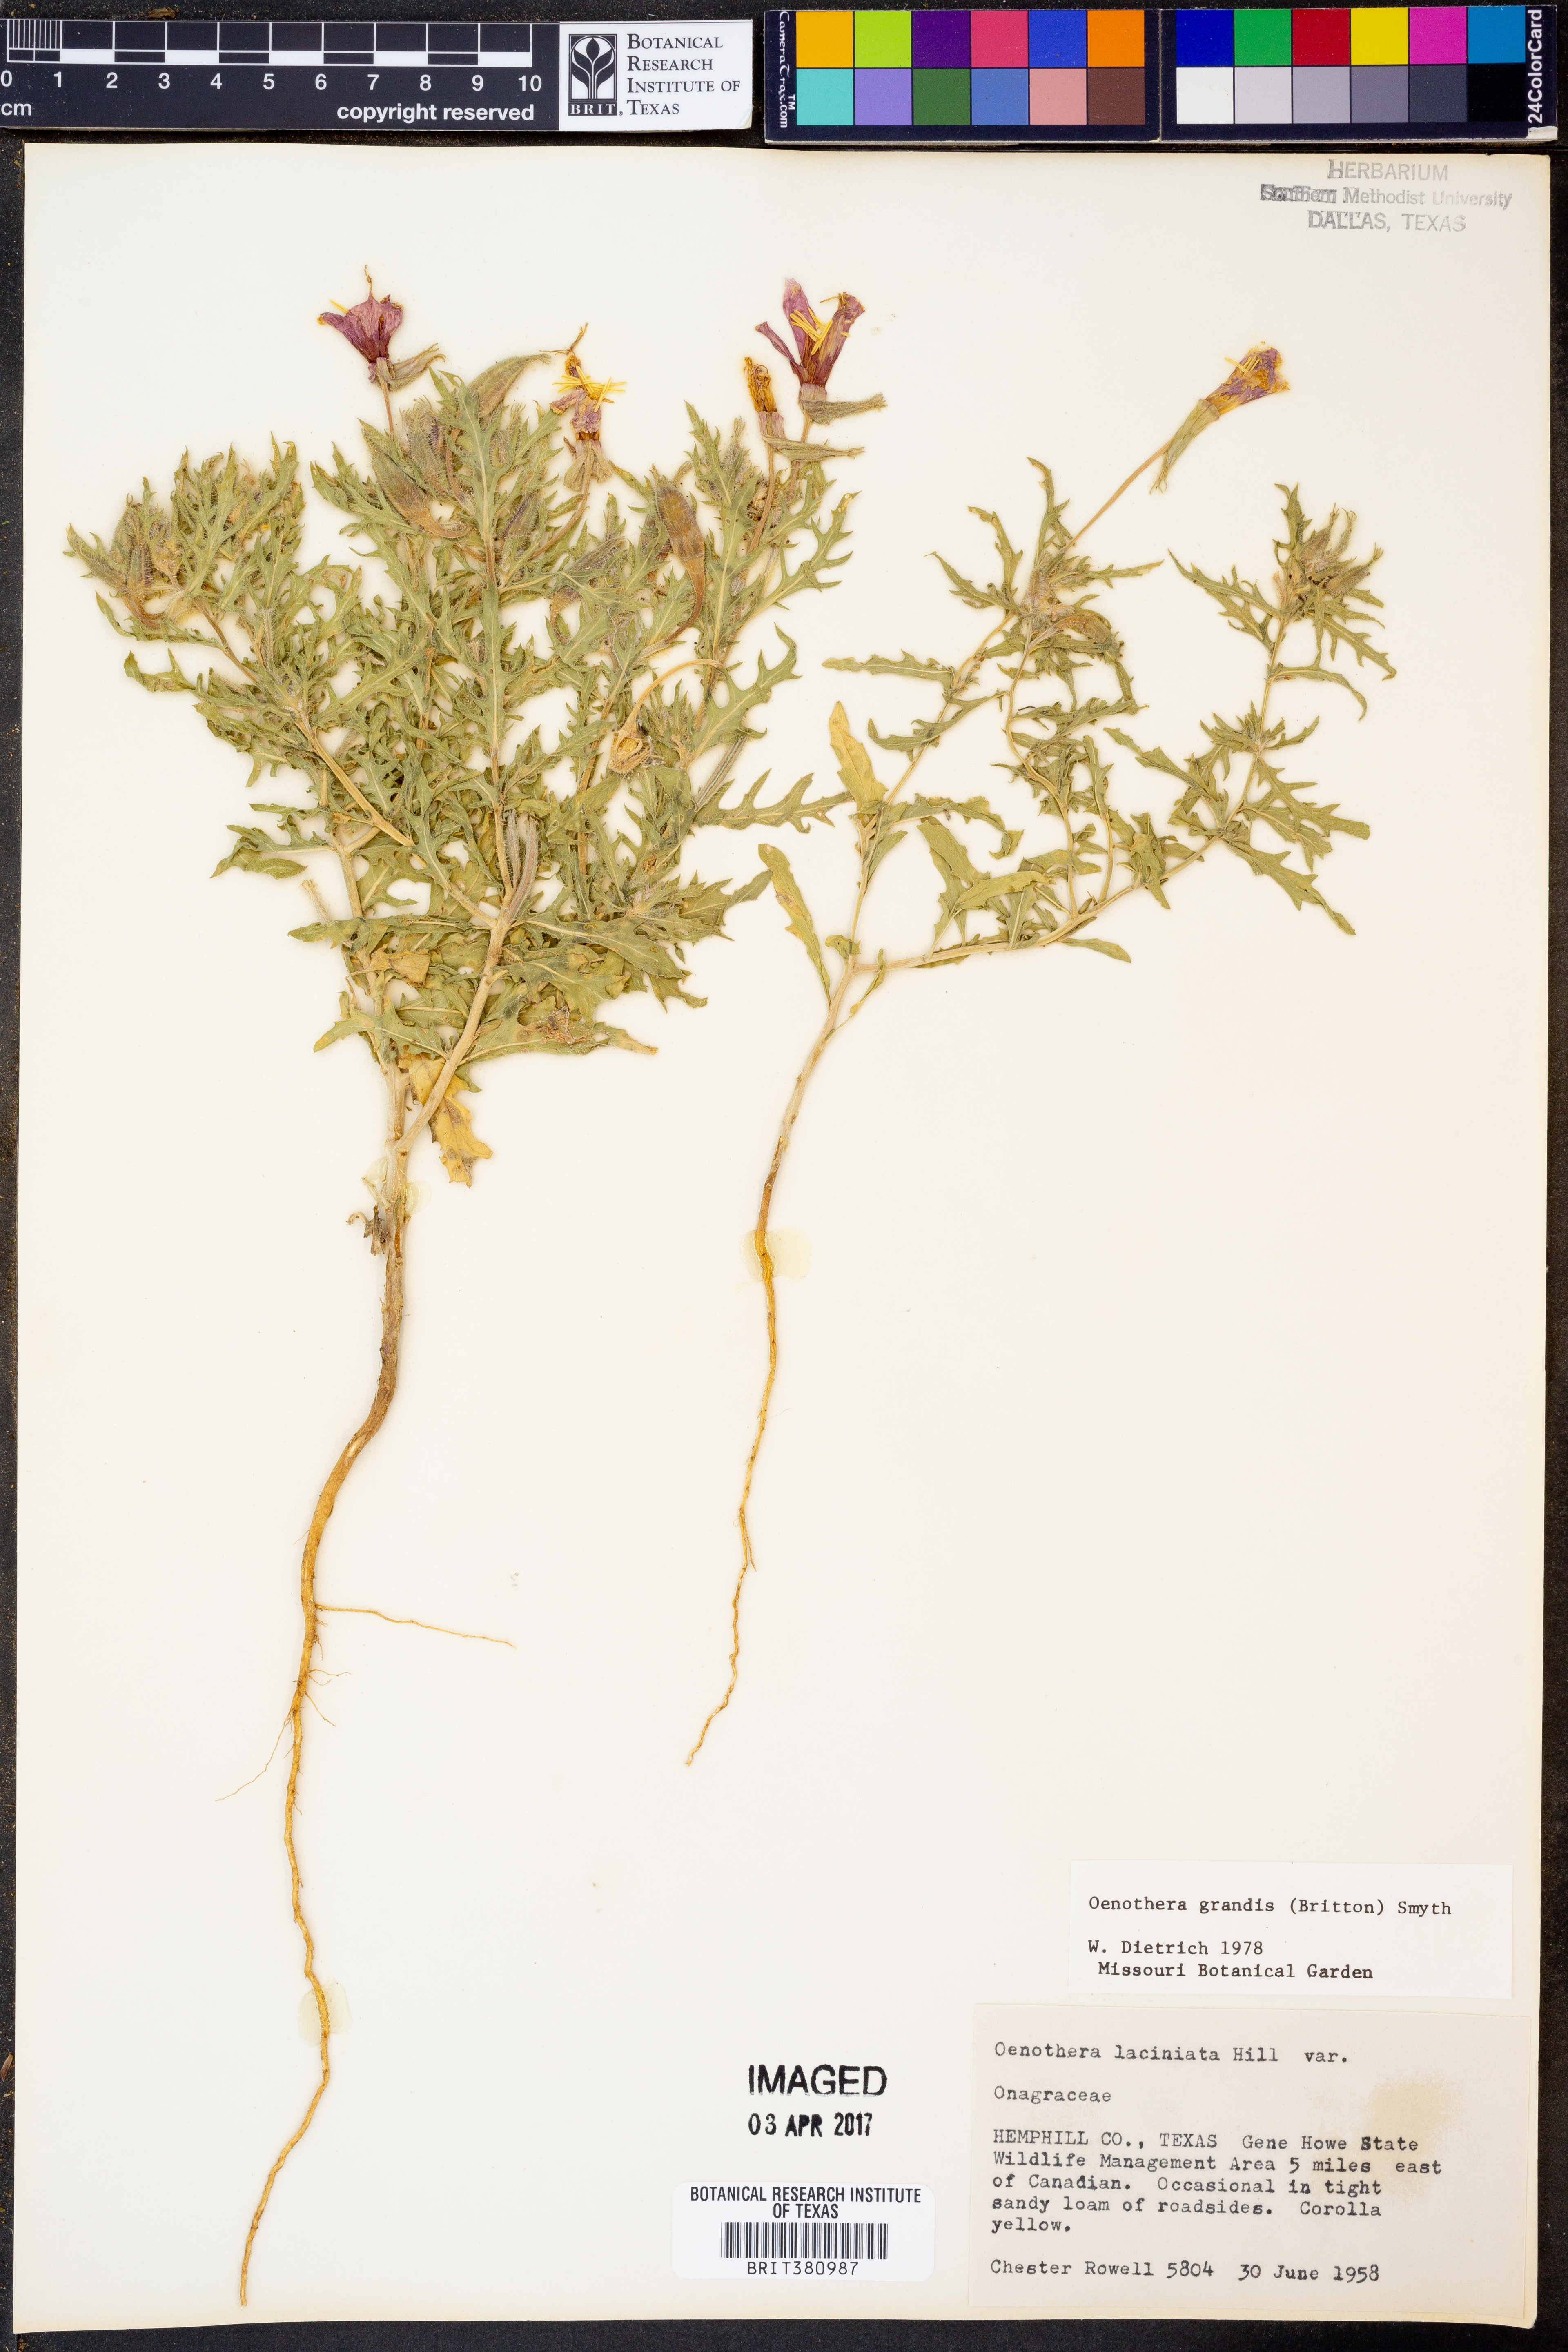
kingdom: Plantae
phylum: Tracheophyta
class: Magnoliopsida
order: Myrtales
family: Onagraceae
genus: Oenothera
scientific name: Oenothera grandis
